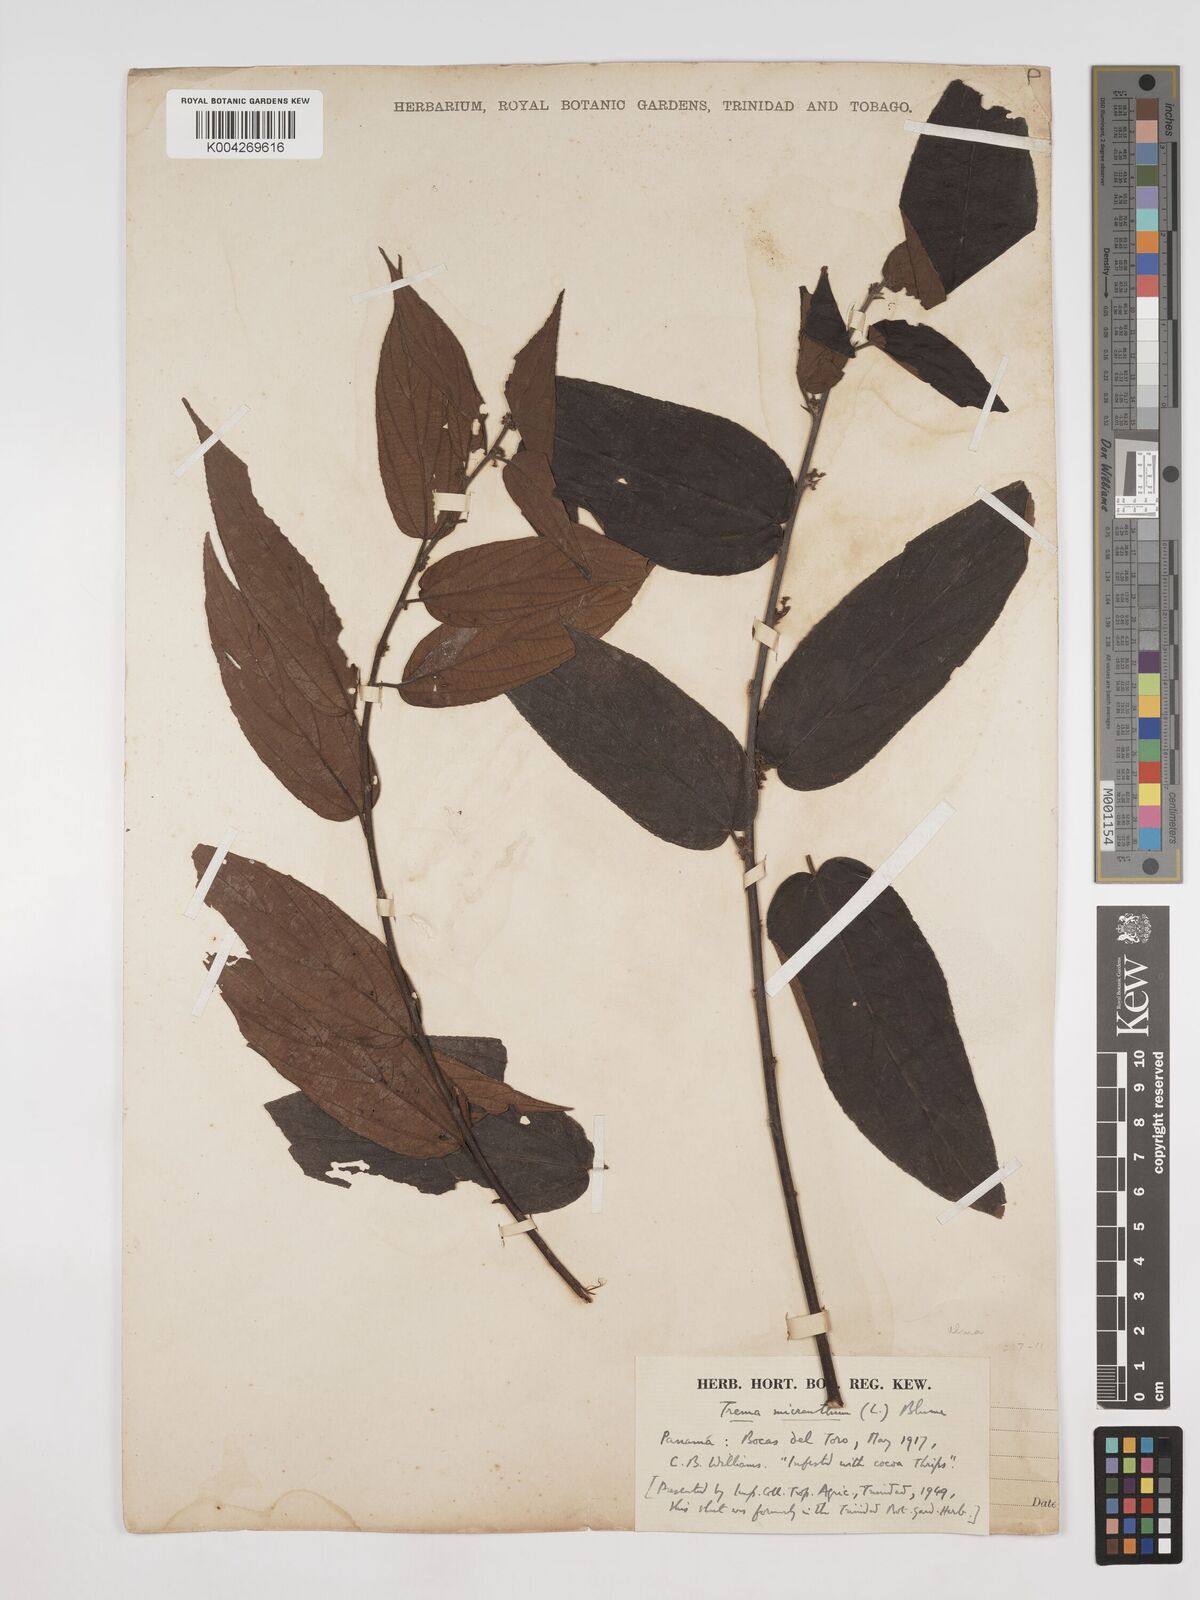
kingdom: Plantae
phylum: Tracheophyta
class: Magnoliopsida
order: Rosales
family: Cannabaceae
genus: Trema
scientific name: Trema micranthum
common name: Jamaican nettletree
